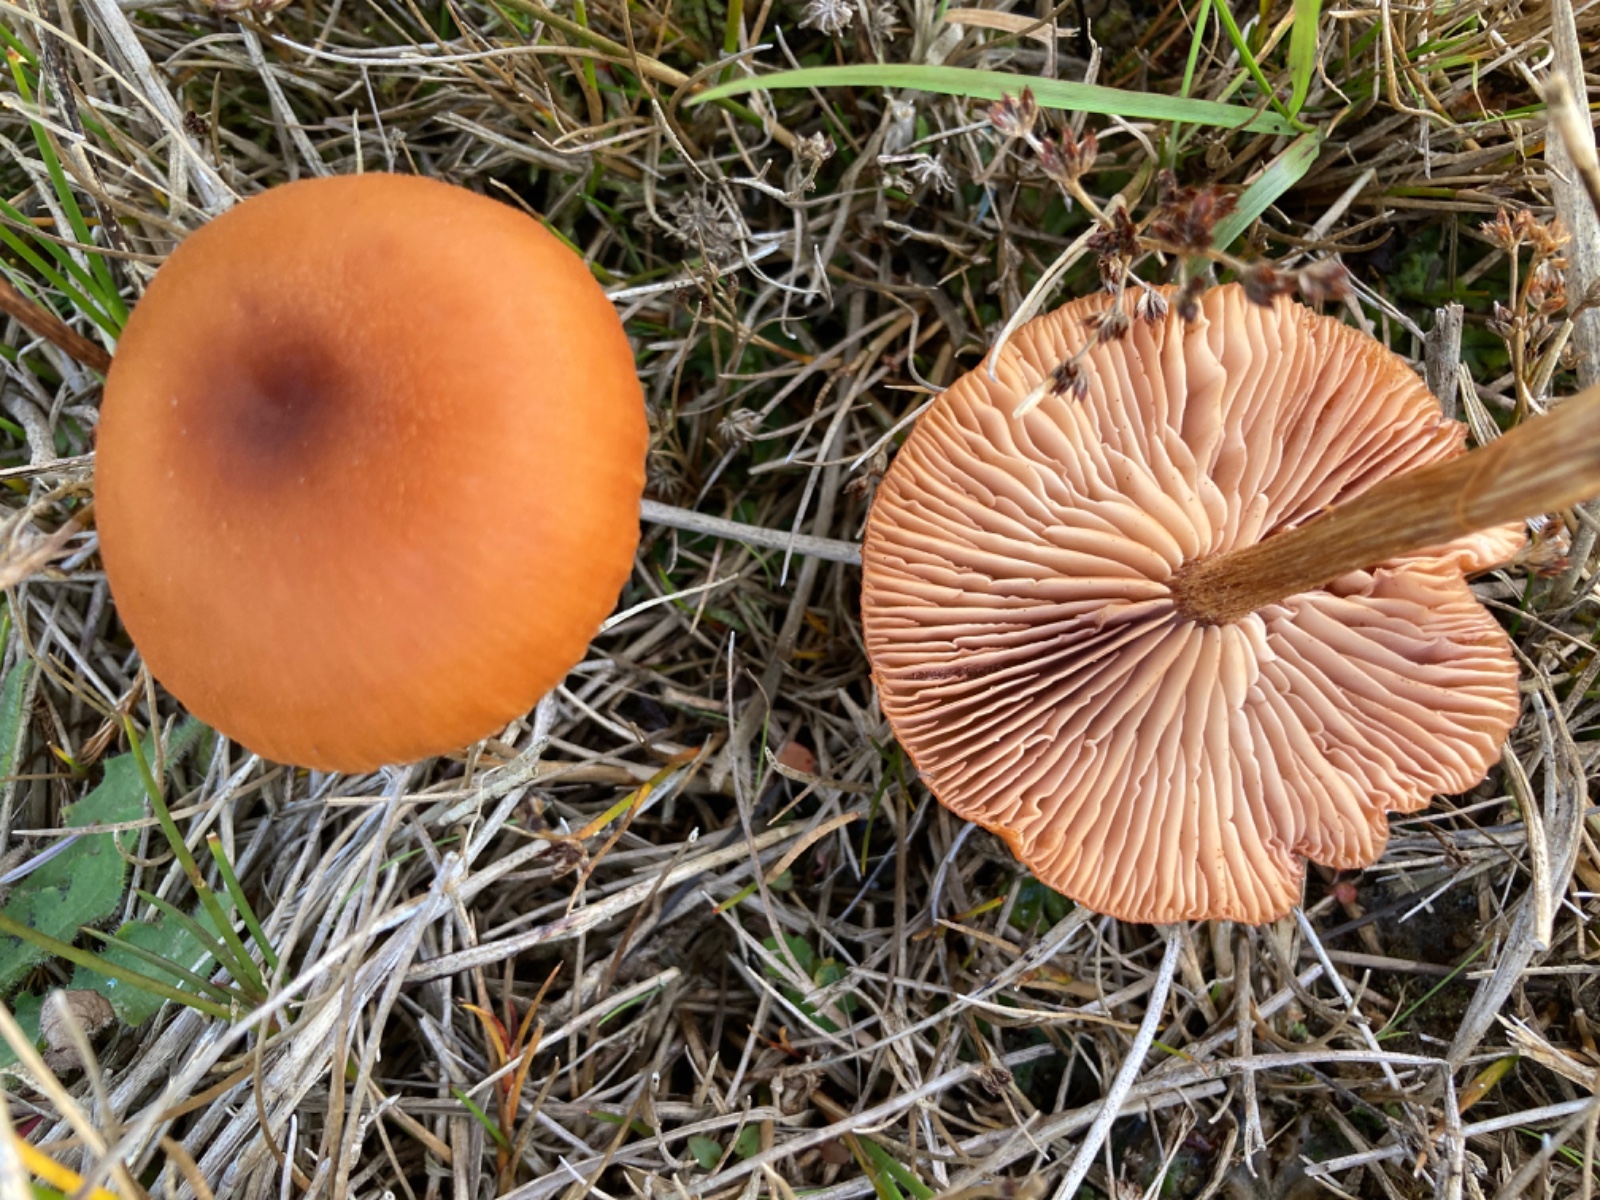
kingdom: Fungi
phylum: Basidiomycota
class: Agaricomycetes
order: Agaricales
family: Hydnangiaceae
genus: Laccaria
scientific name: Laccaria proxima
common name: stor ametysthat
